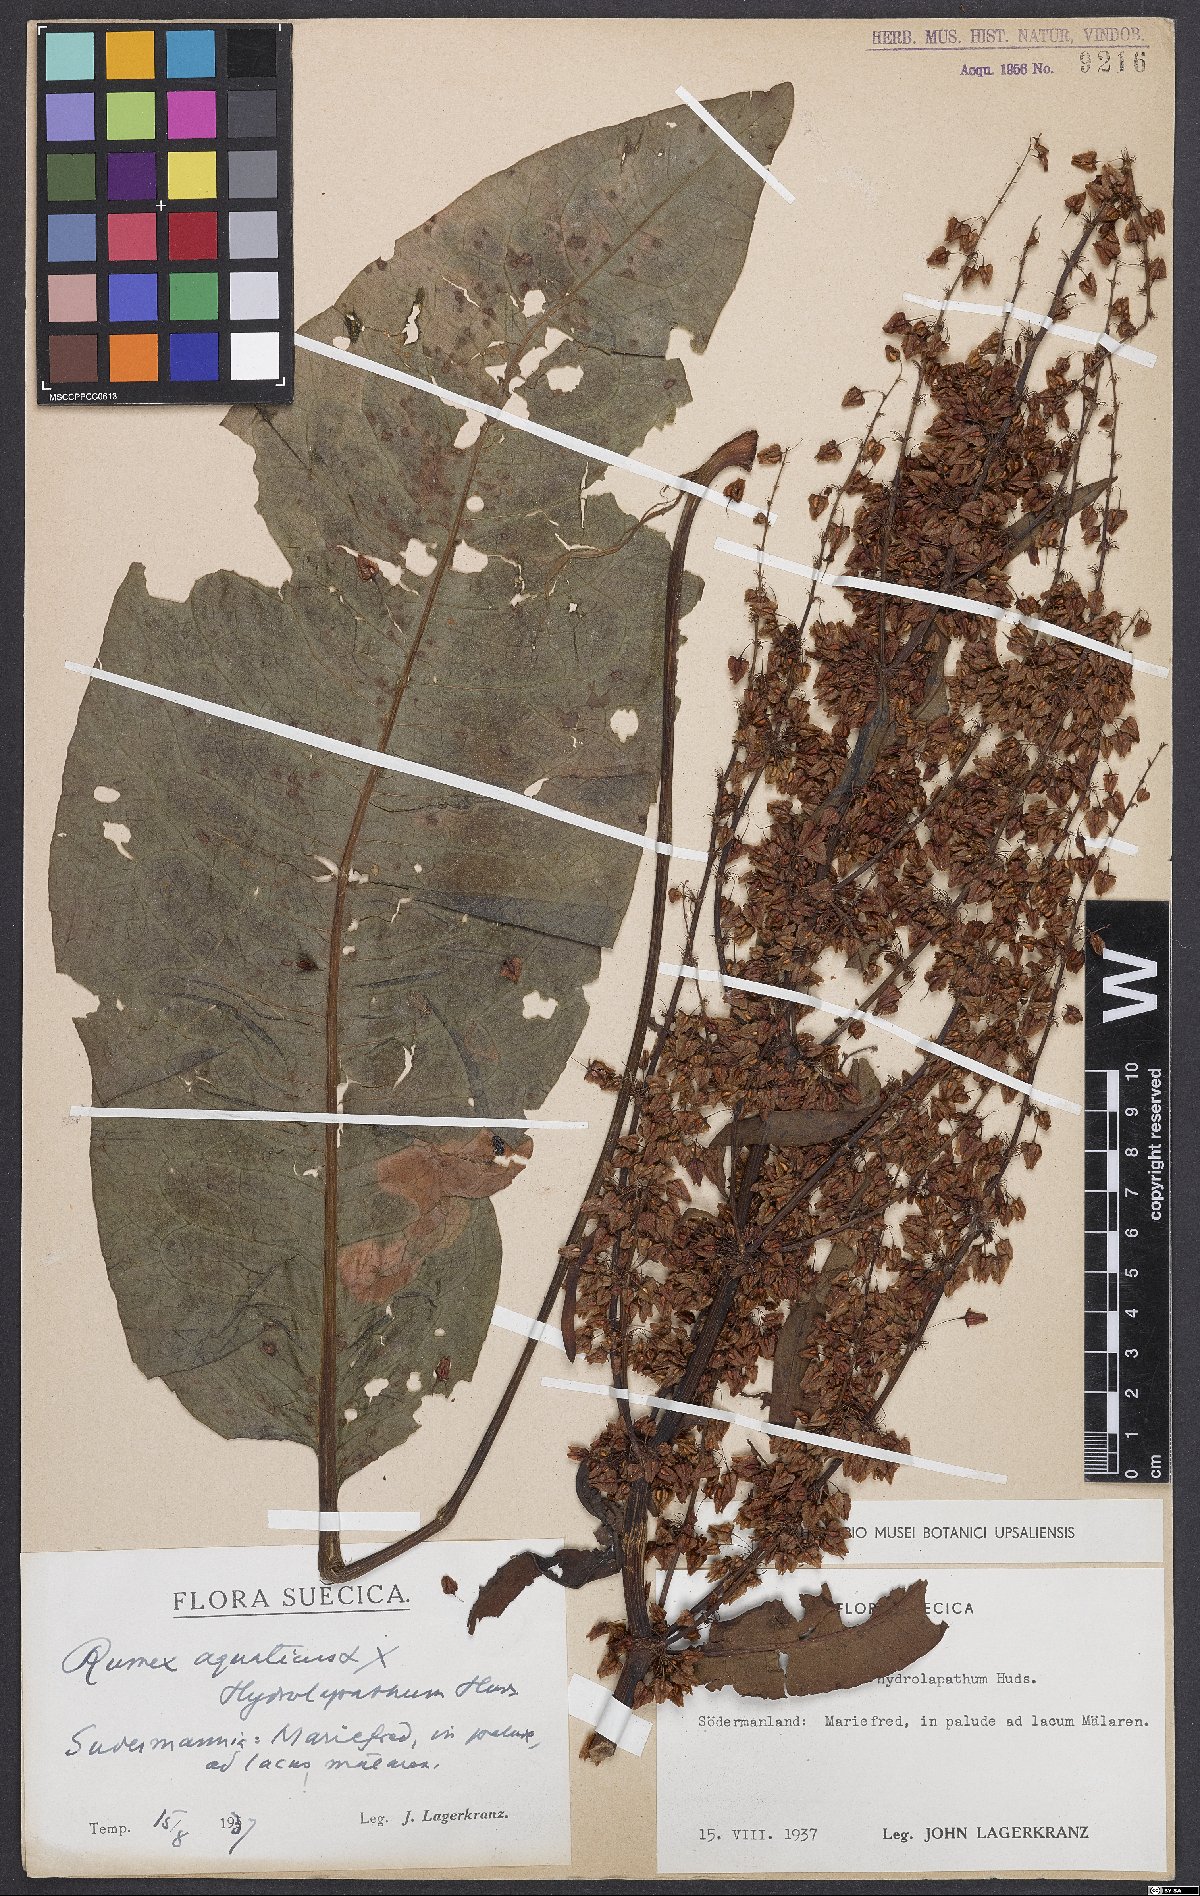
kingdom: Plantae
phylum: Tracheophyta
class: Magnoliopsida
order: Caryophyllales
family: Polygonaceae
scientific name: Polygonaceae
